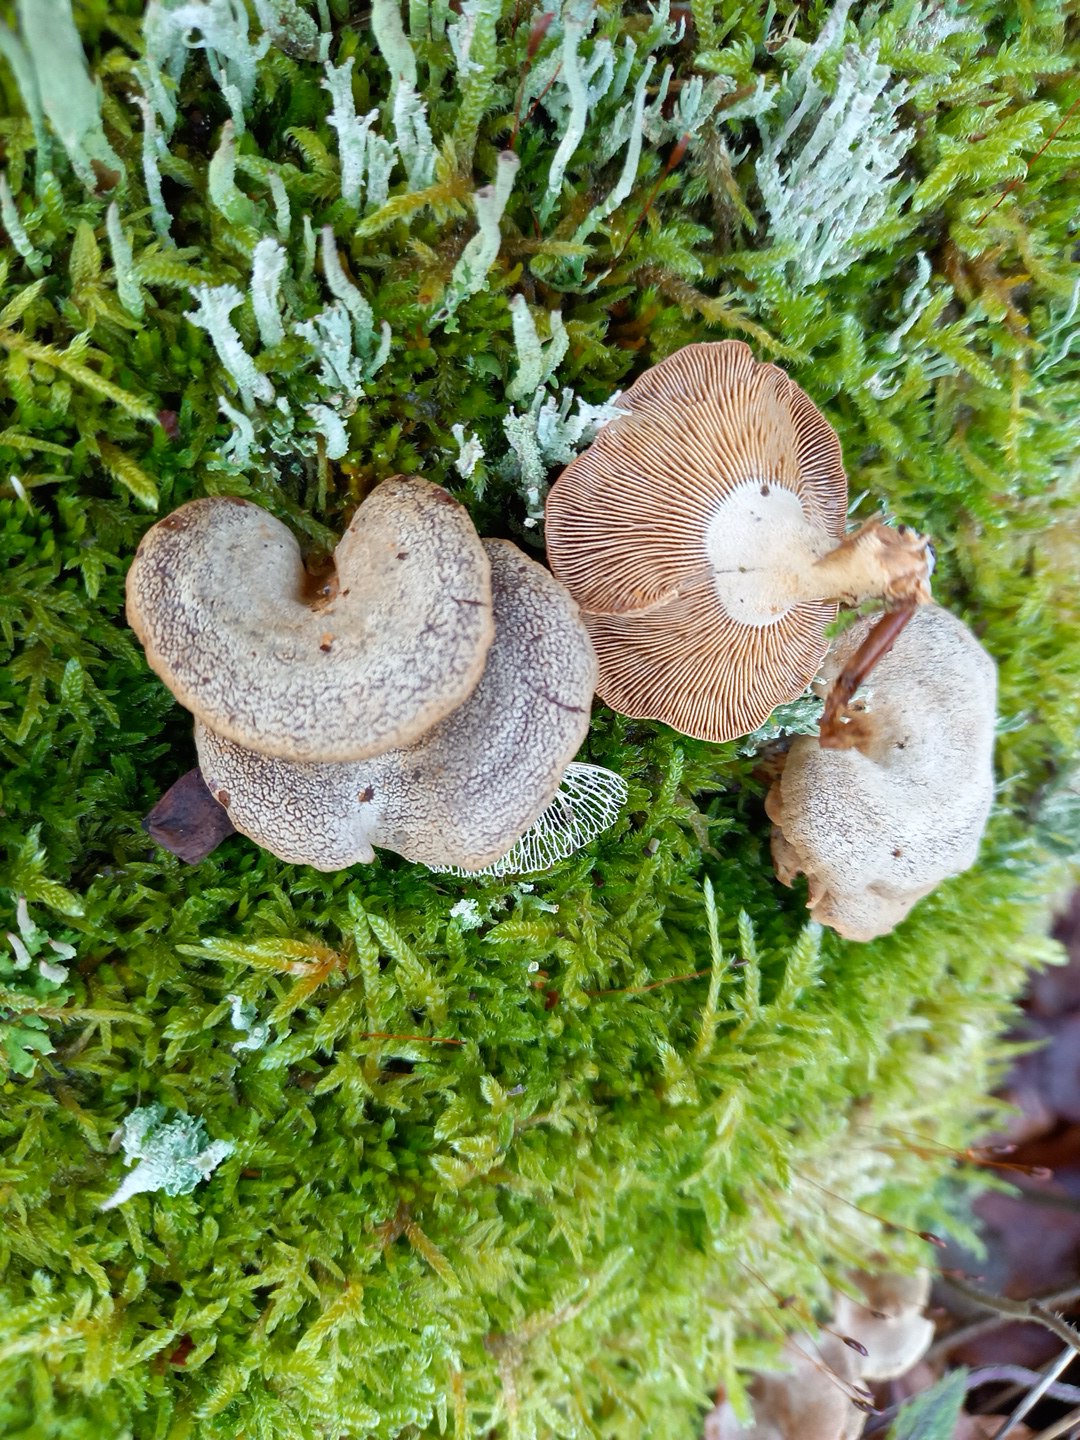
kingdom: Fungi
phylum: Basidiomycota
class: Agaricomycetes
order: Agaricales
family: Mycenaceae
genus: Panellus
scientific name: Panellus stipticus
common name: kliddet epaulethat
